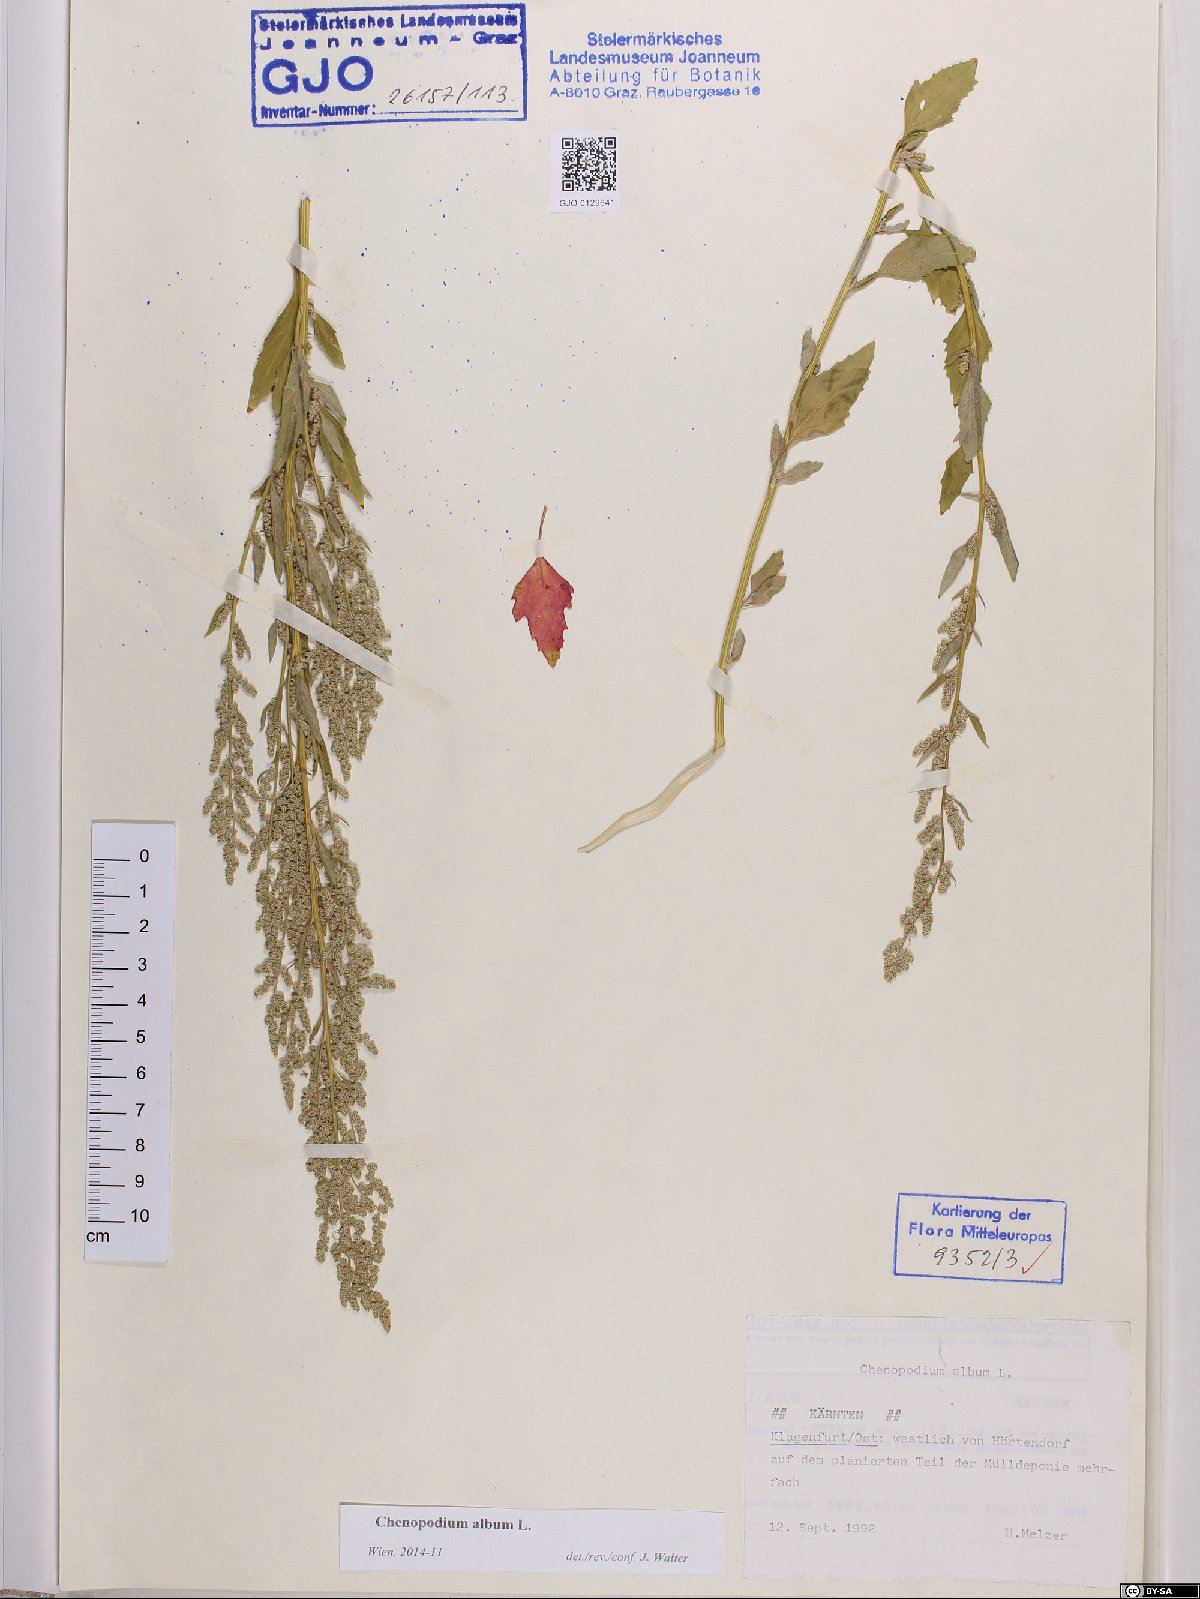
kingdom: Plantae
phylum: Tracheophyta
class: Magnoliopsida
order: Caryophyllales
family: Amaranthaceae
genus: Chenopodium
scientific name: Chenopodium album
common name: Fat-hen
